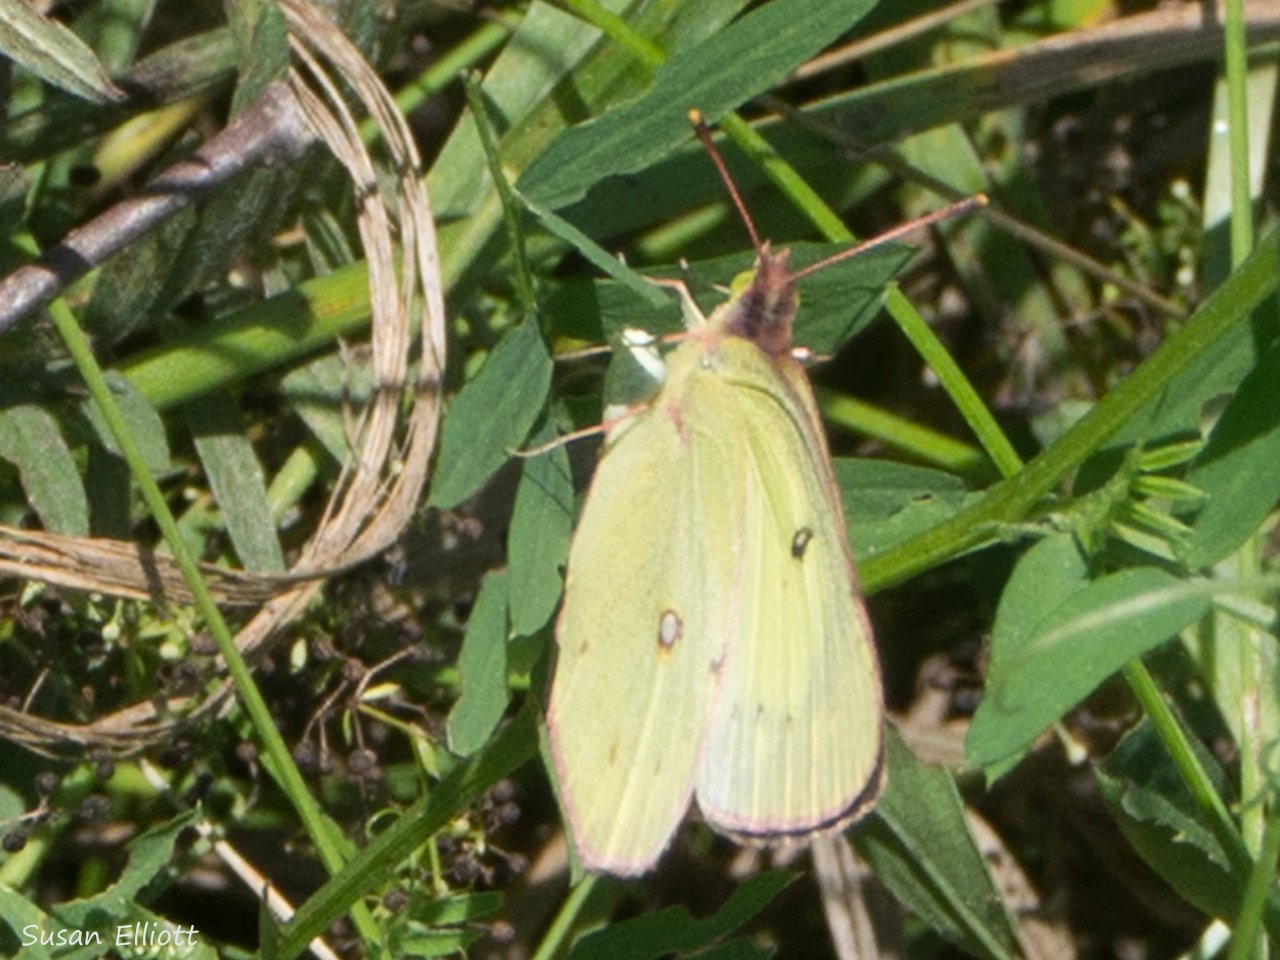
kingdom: Animalia
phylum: Arthropoda
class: Insecta
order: Lepidoptera
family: Pieridae
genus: Colias
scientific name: Colias philodice
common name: Clouded Sulphur
